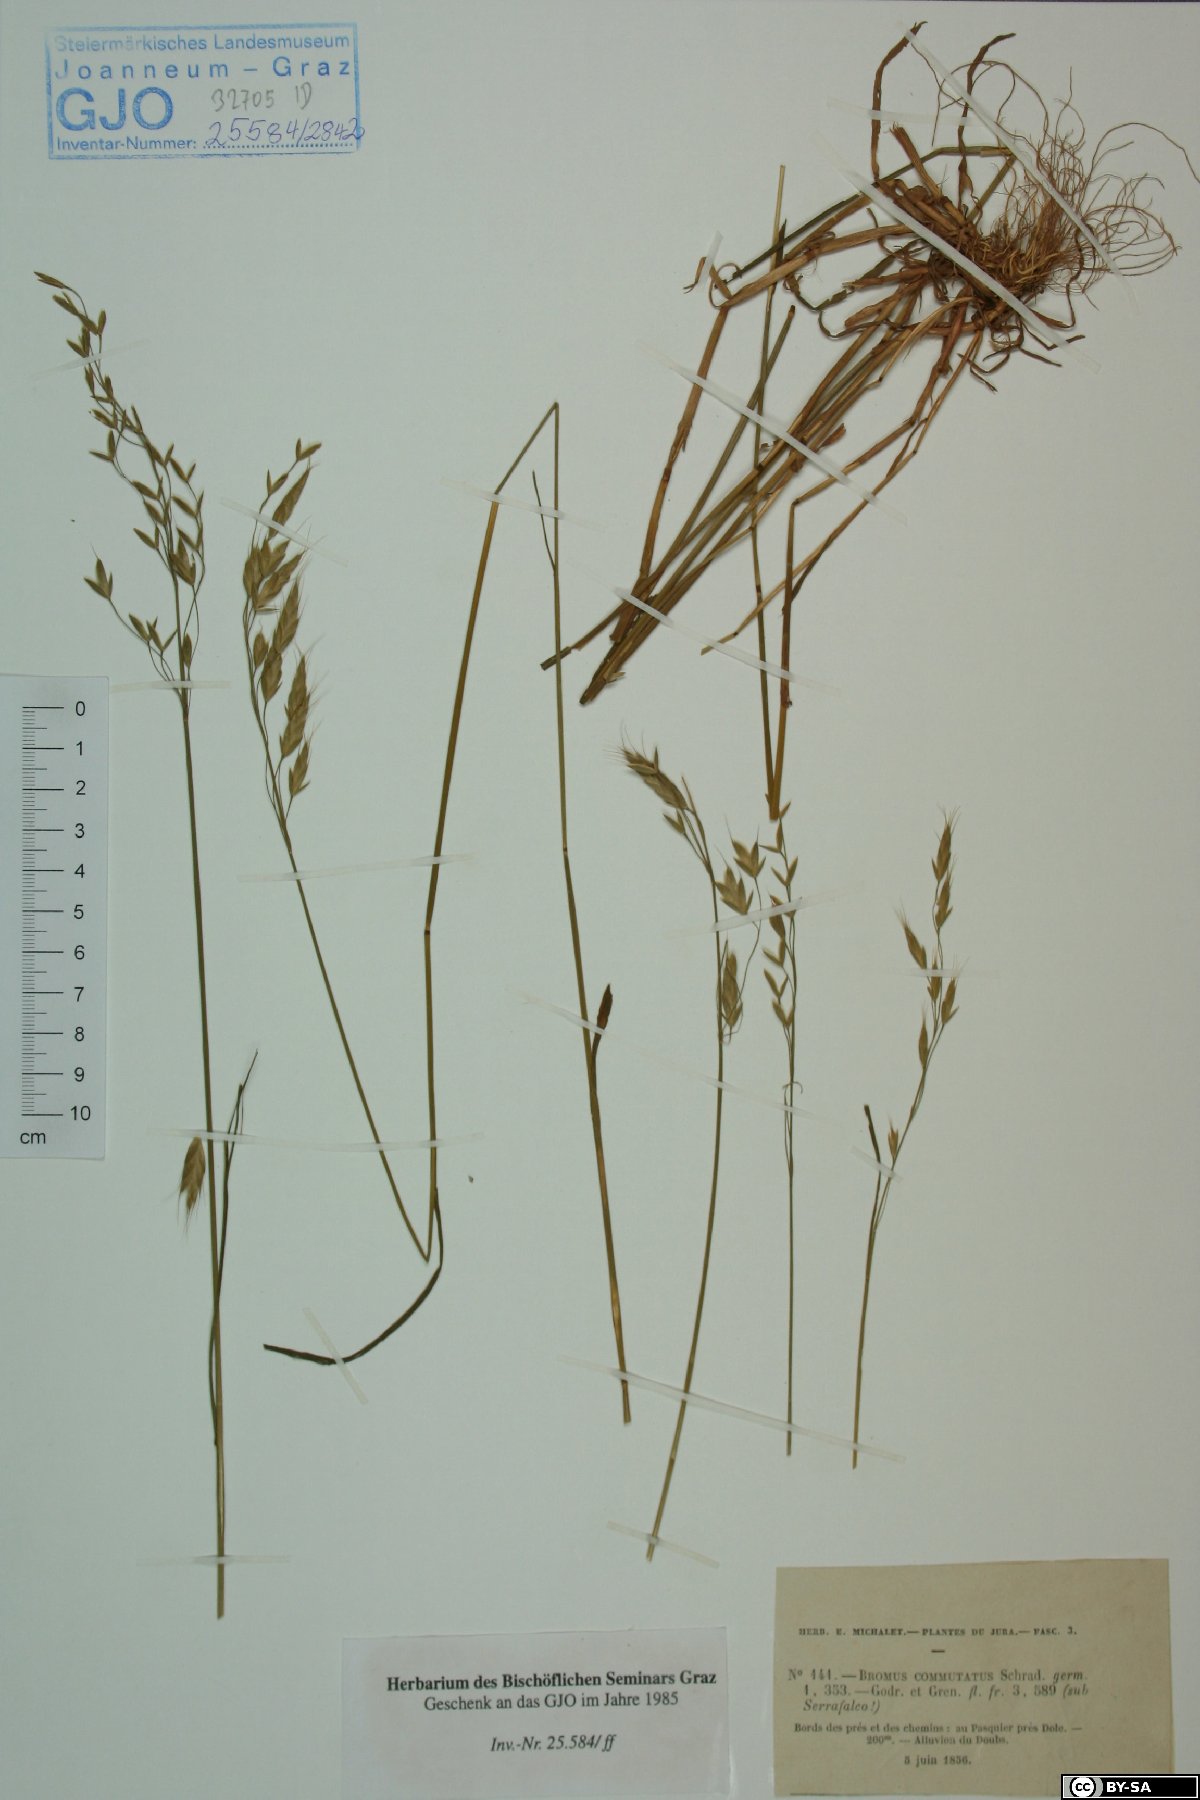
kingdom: Plantae
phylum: Tracheophyta
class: Liliopsida
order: Poales
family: Poaceae
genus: Bromus
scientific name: Bromus commutatus
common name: Meadow brome
